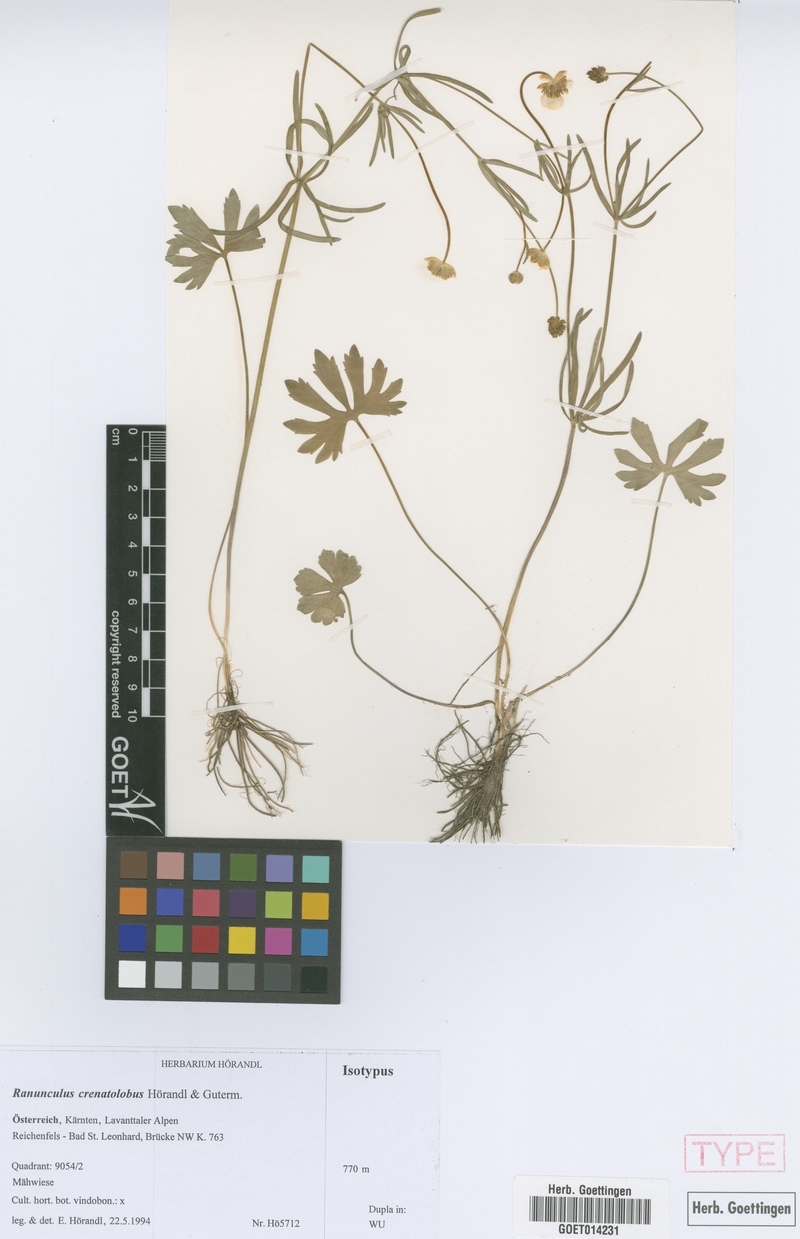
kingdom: Plantae
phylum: Tracheophyta
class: Magnoliopsida
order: Ranunculales
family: Ranunculaceae
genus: Ranunculus
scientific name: Ranunculus crenatolobus
